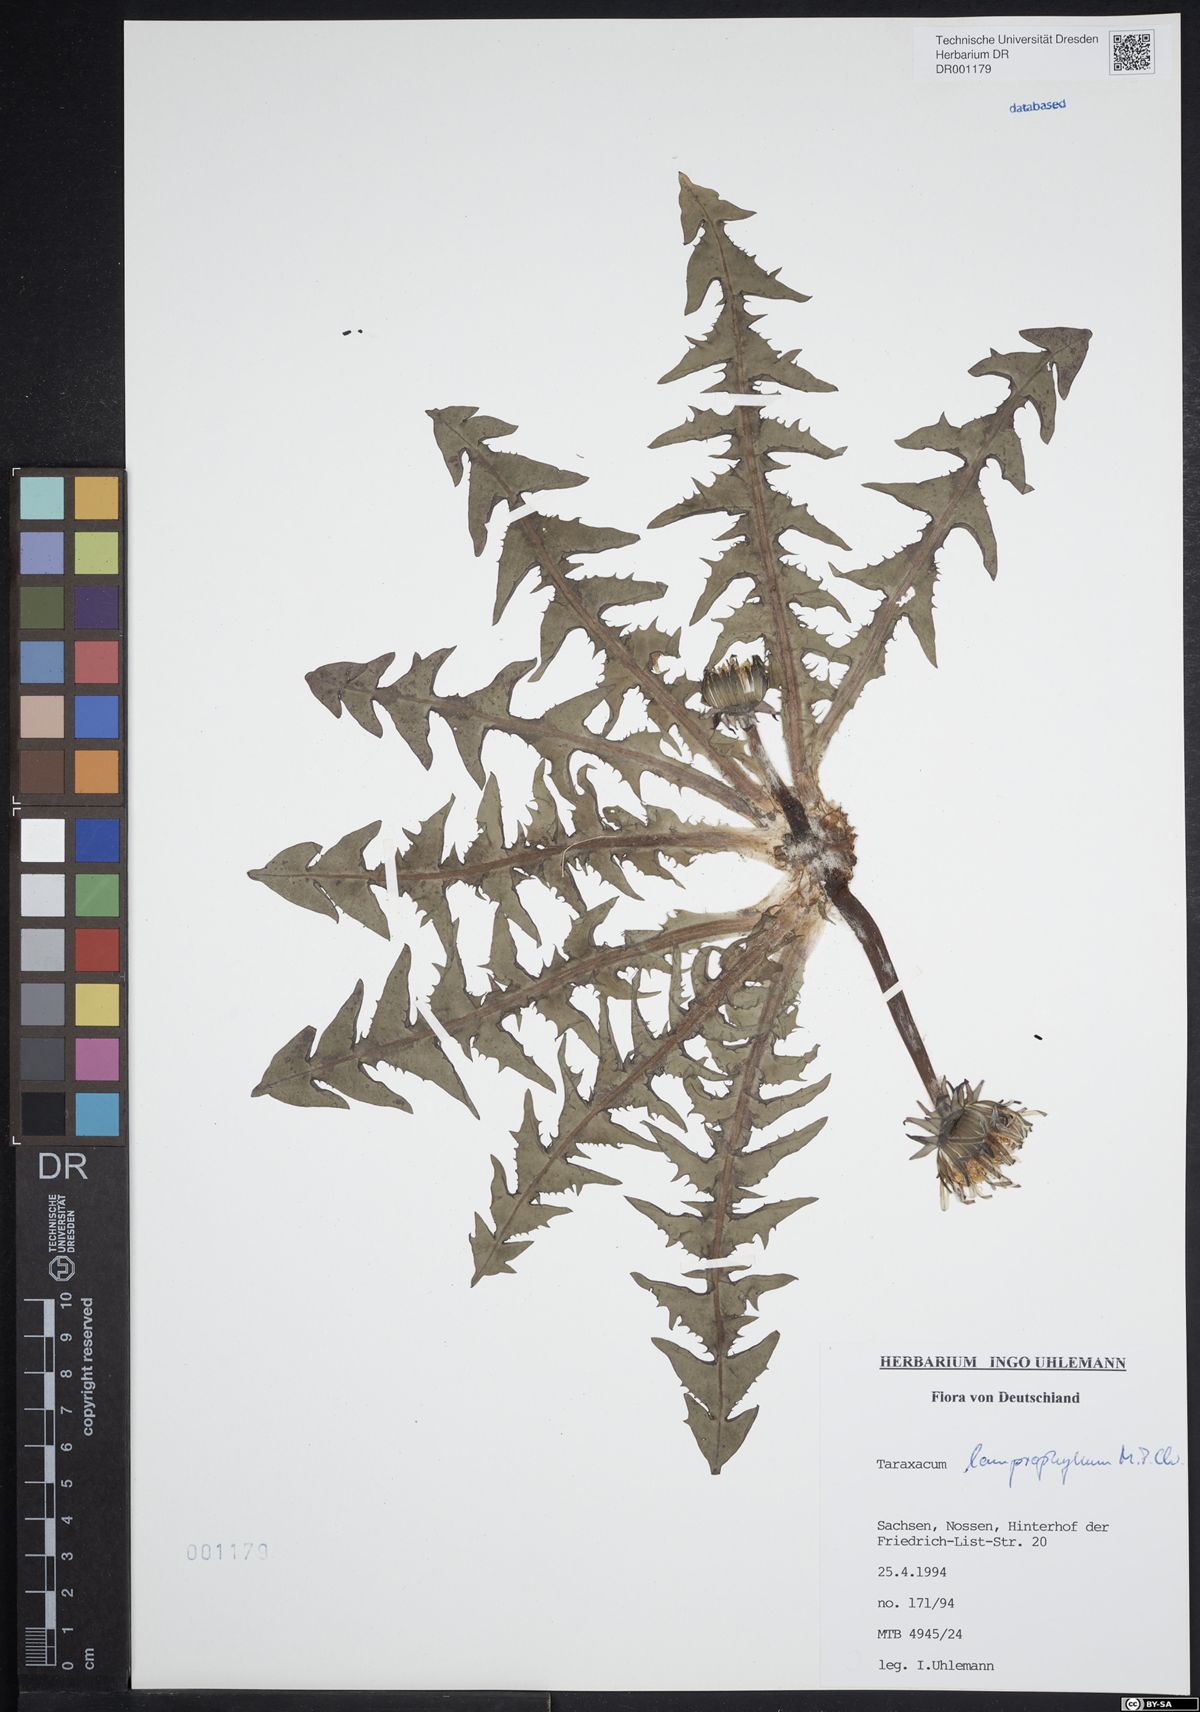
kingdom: Plantae
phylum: Tracheophyta
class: Magnoliopsida
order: Asterales
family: Asteraceae
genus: Taraxacum
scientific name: Taraxacum lamprophyllum
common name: Lustrous-leaved dandelion
